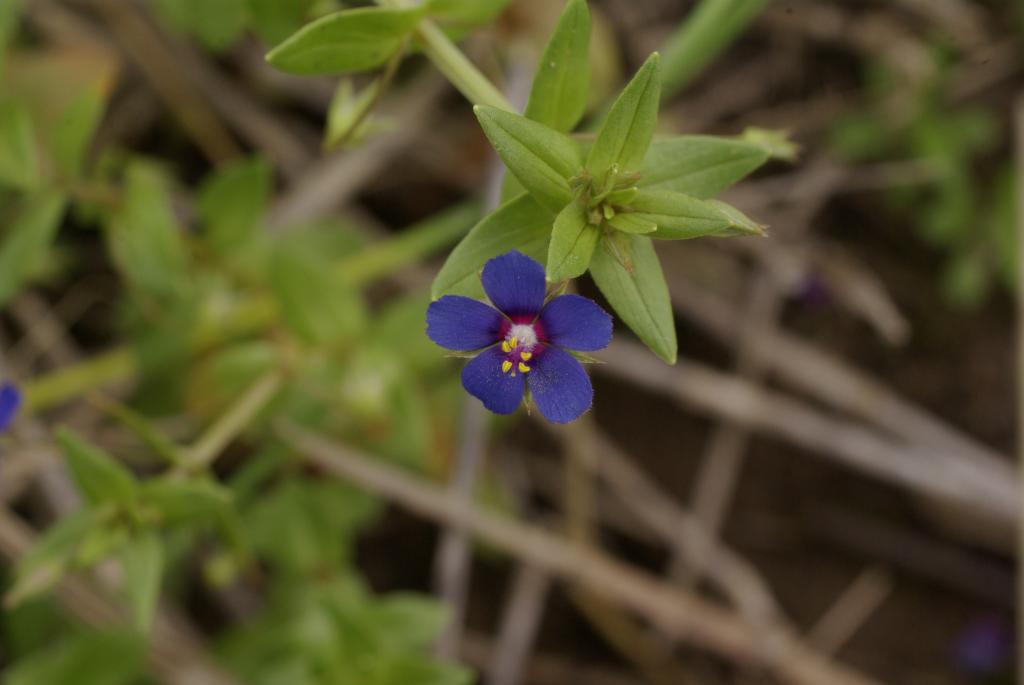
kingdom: Plantae
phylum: Tracheophyta
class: Magnoliopsida
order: Ericales
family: Primulaceae
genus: Lysimachia
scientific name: Lysimachia arvensis
